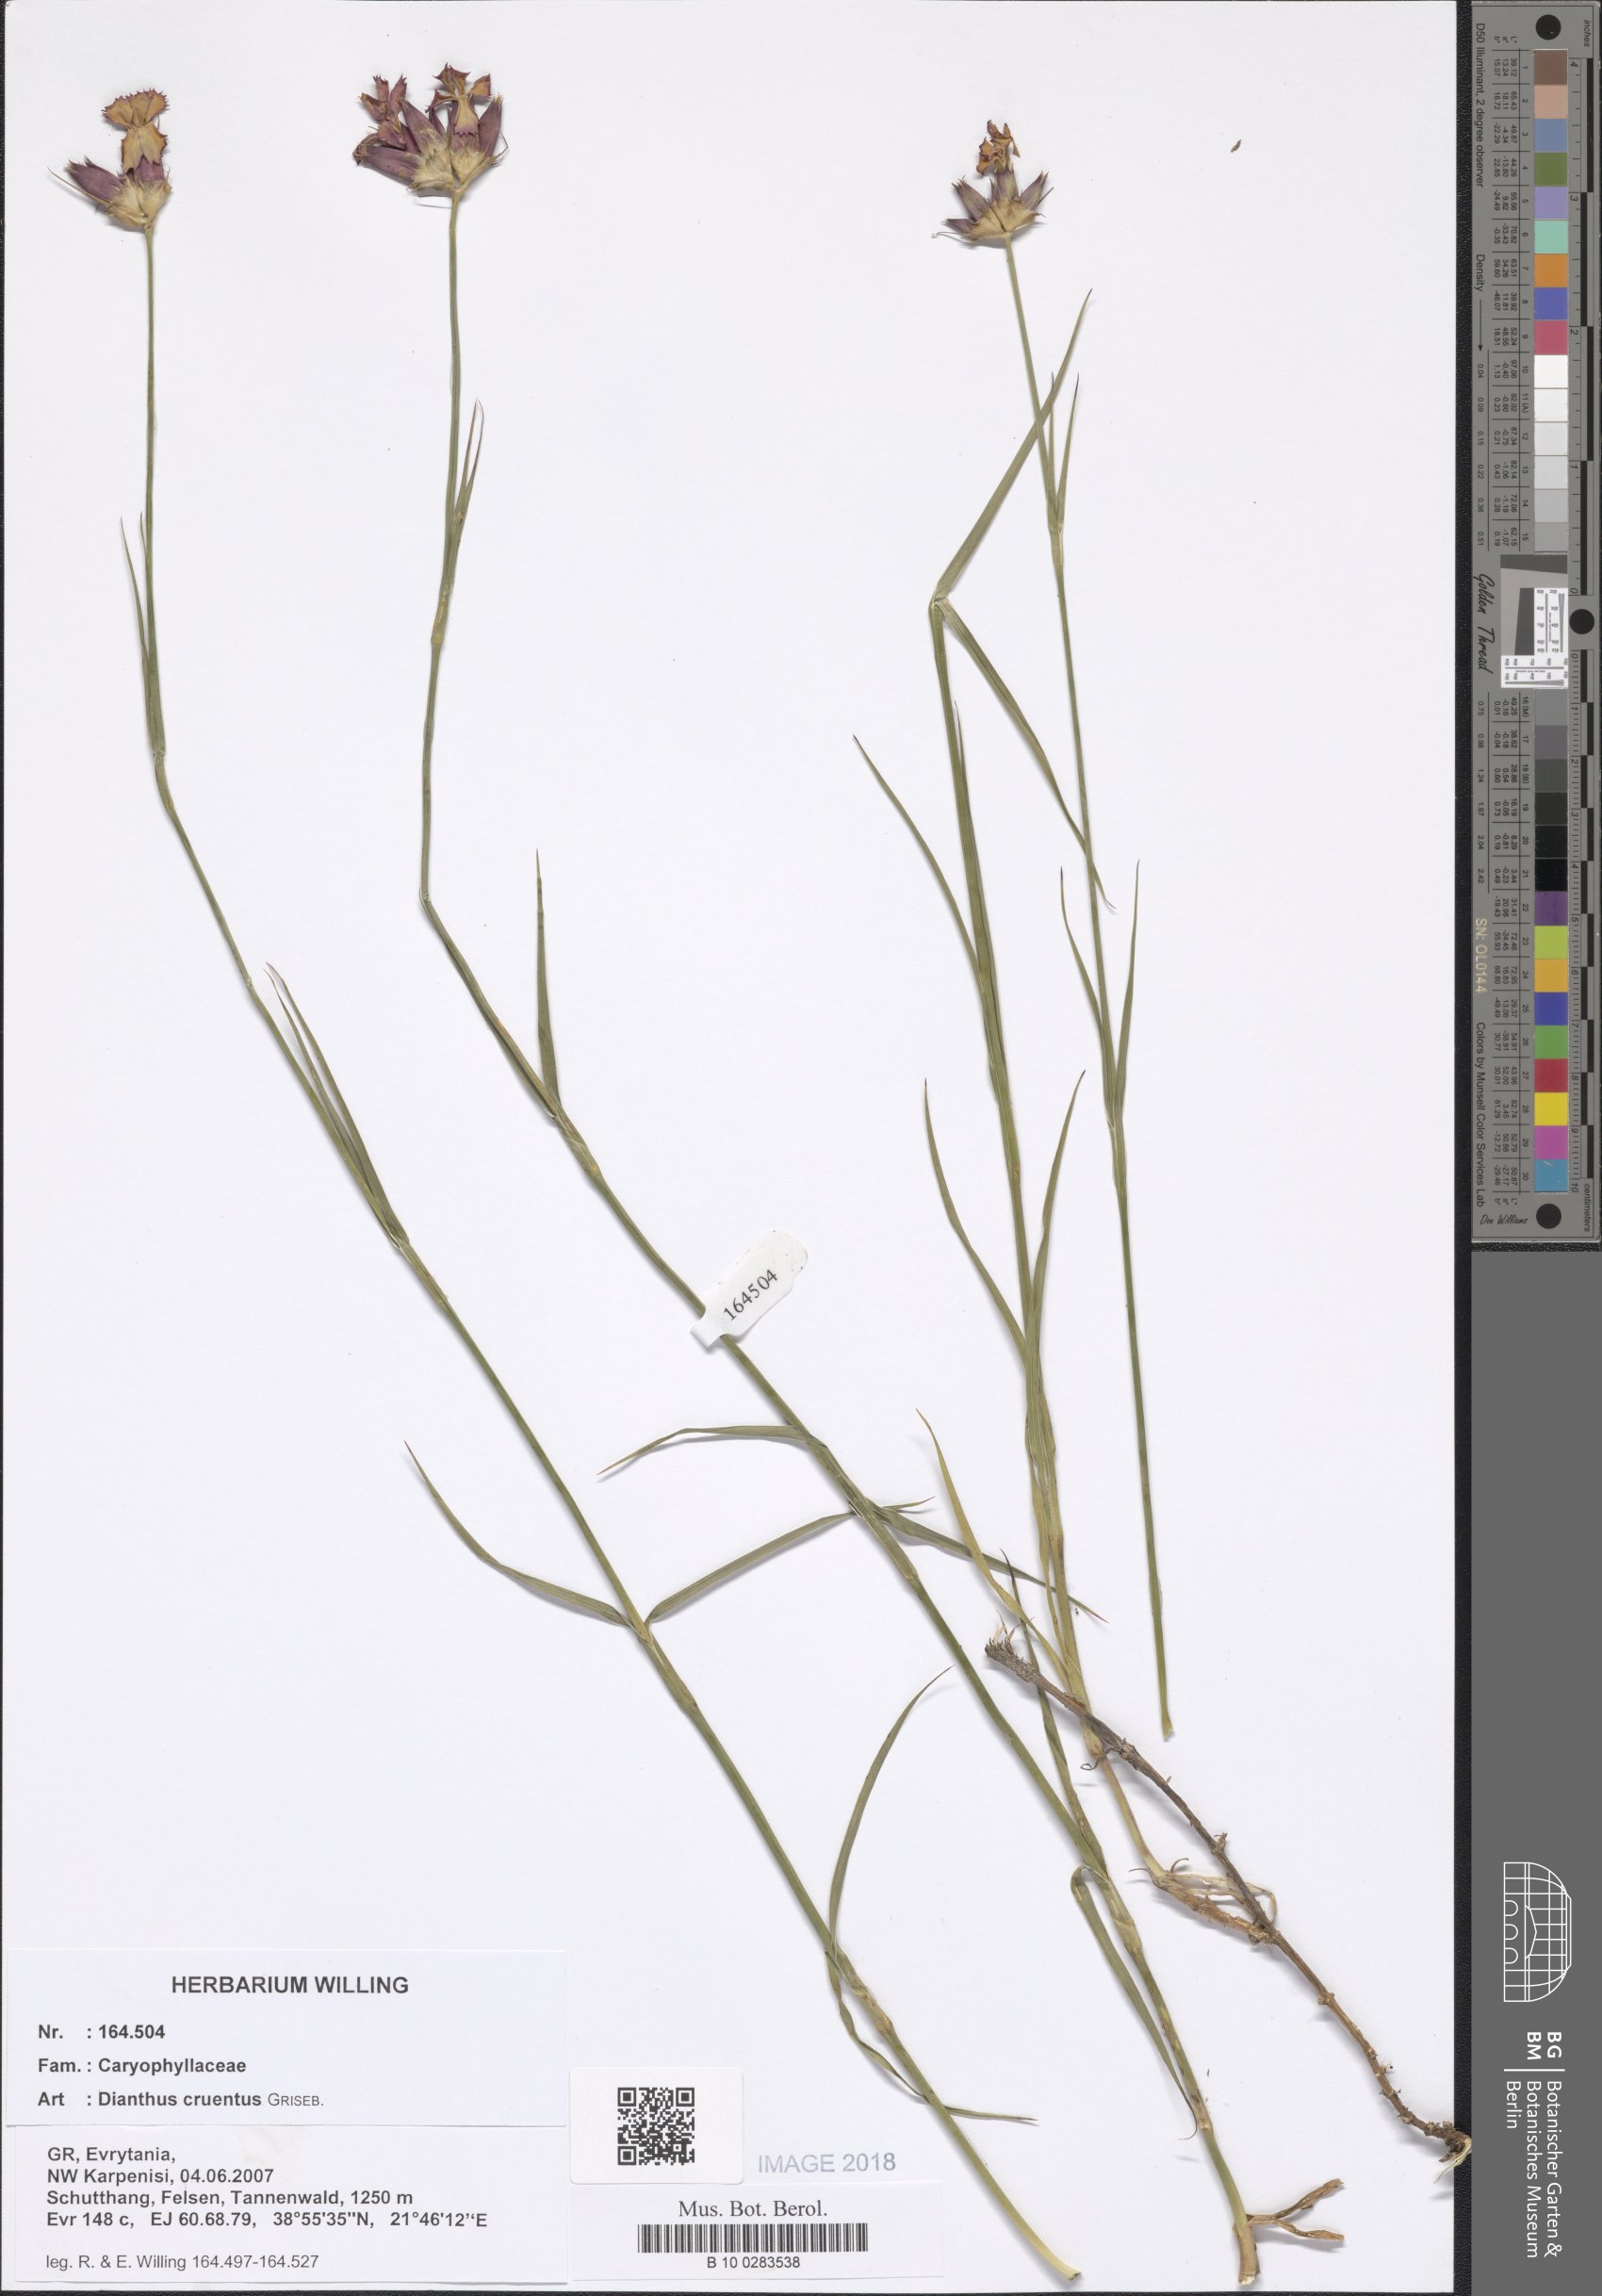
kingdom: Plantae
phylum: Tracheophyta
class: Magnoliopsida
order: Caryophyllales
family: Caryophyllaceae
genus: Dianthus
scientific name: Dianthus cruentus
